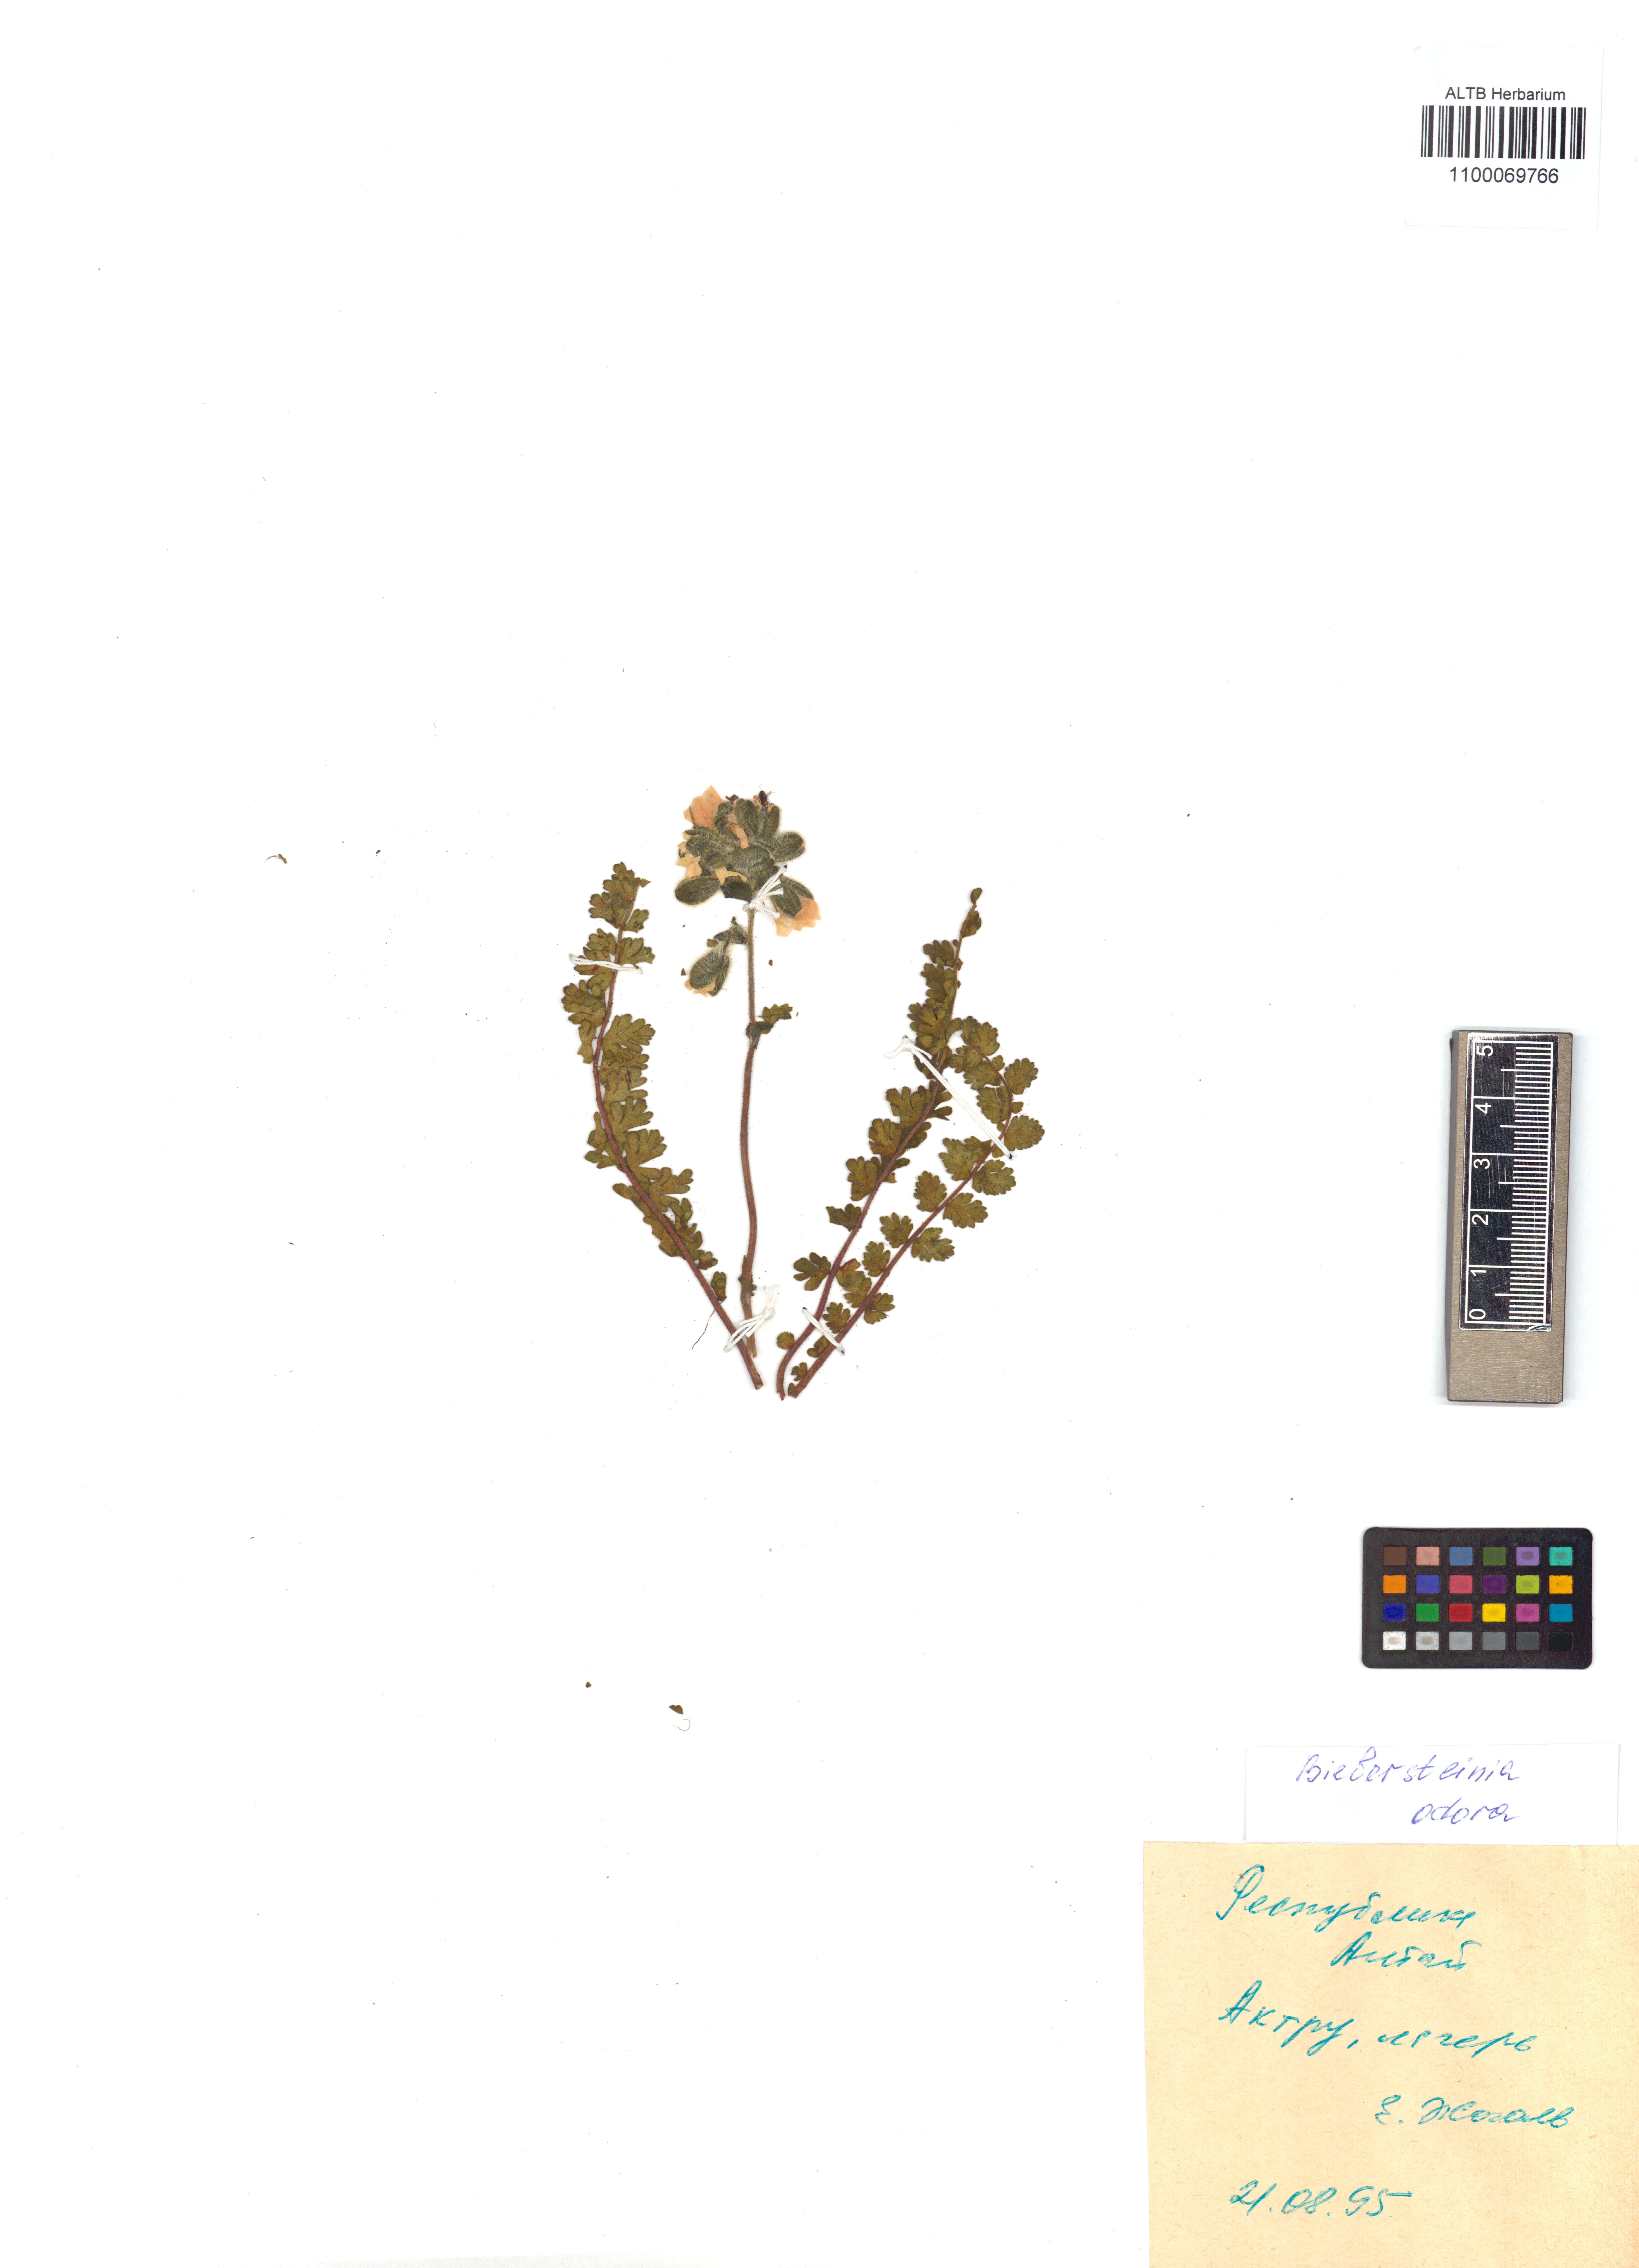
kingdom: Plantae
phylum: Tracheophyta
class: Magnoliopsida
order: Sapindales
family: Biebersteiniaceae
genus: Biebersteinia
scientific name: Biebersteinia odora
